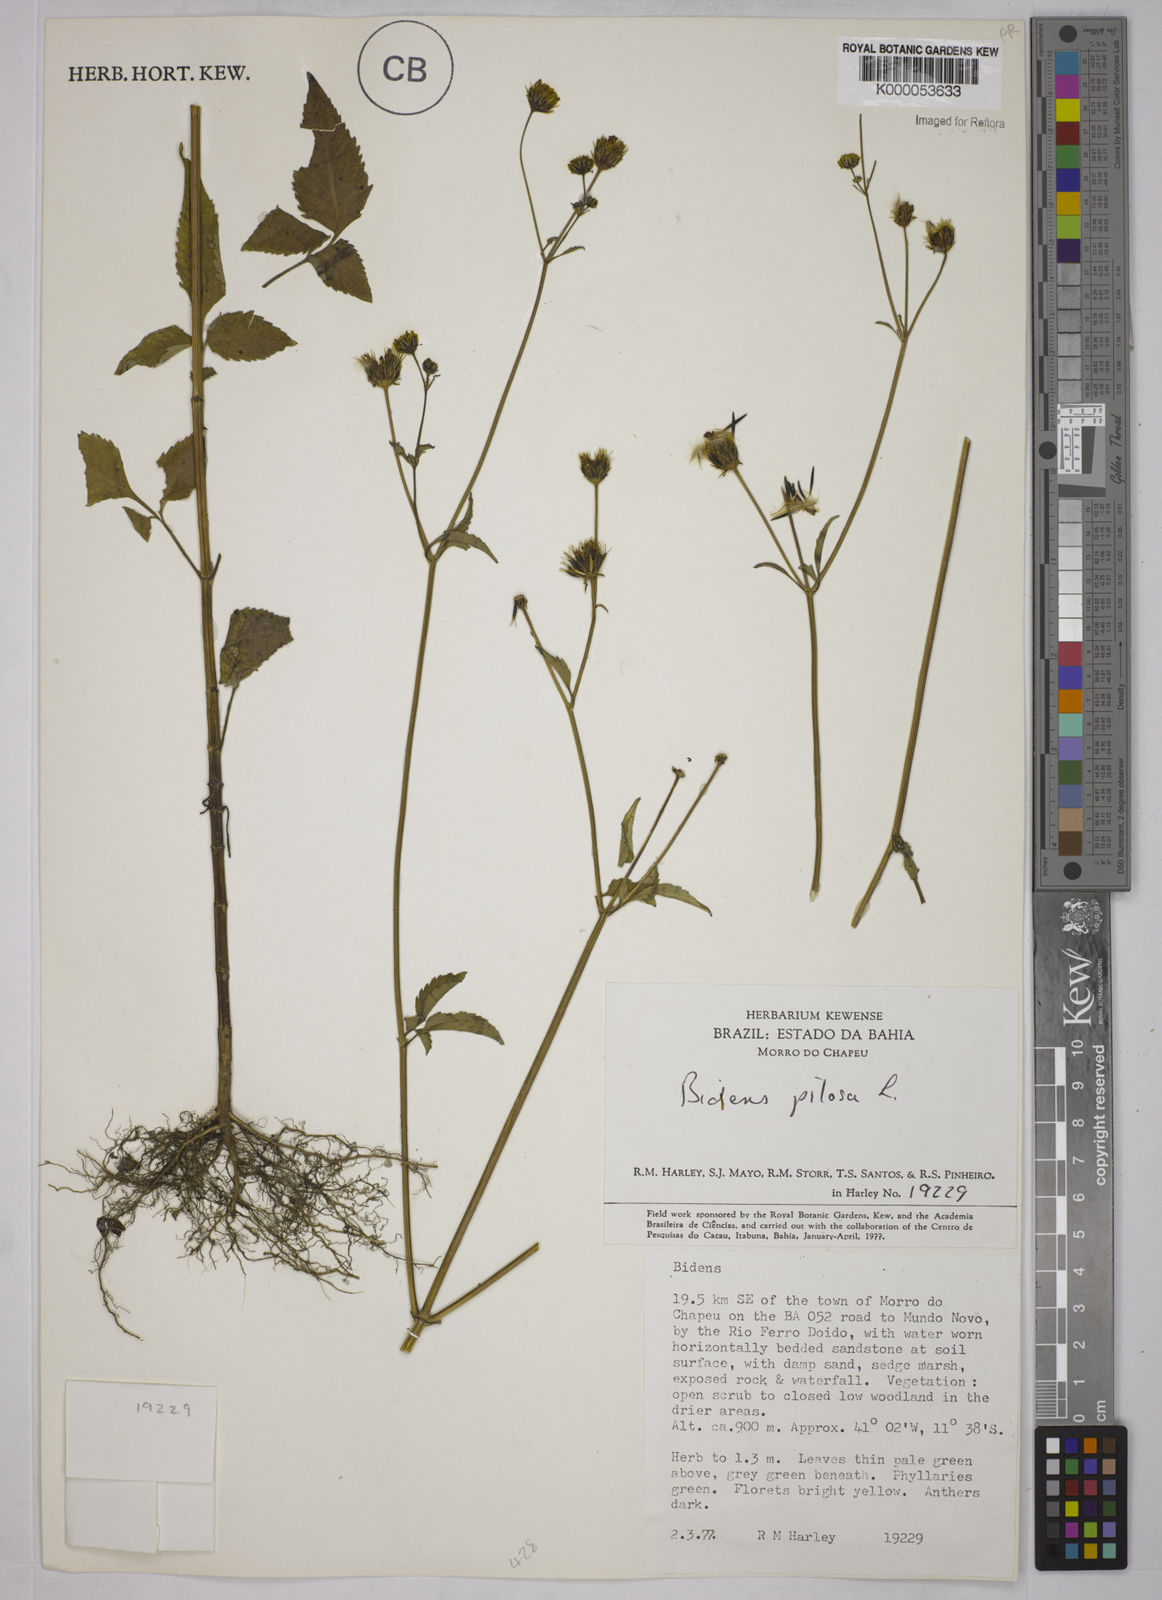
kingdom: Plantae
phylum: Tracheophyta
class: Magnoliopsida
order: Asterales
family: Asteraceae
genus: Bidens
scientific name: Bidens pilosa
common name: Black-jack
